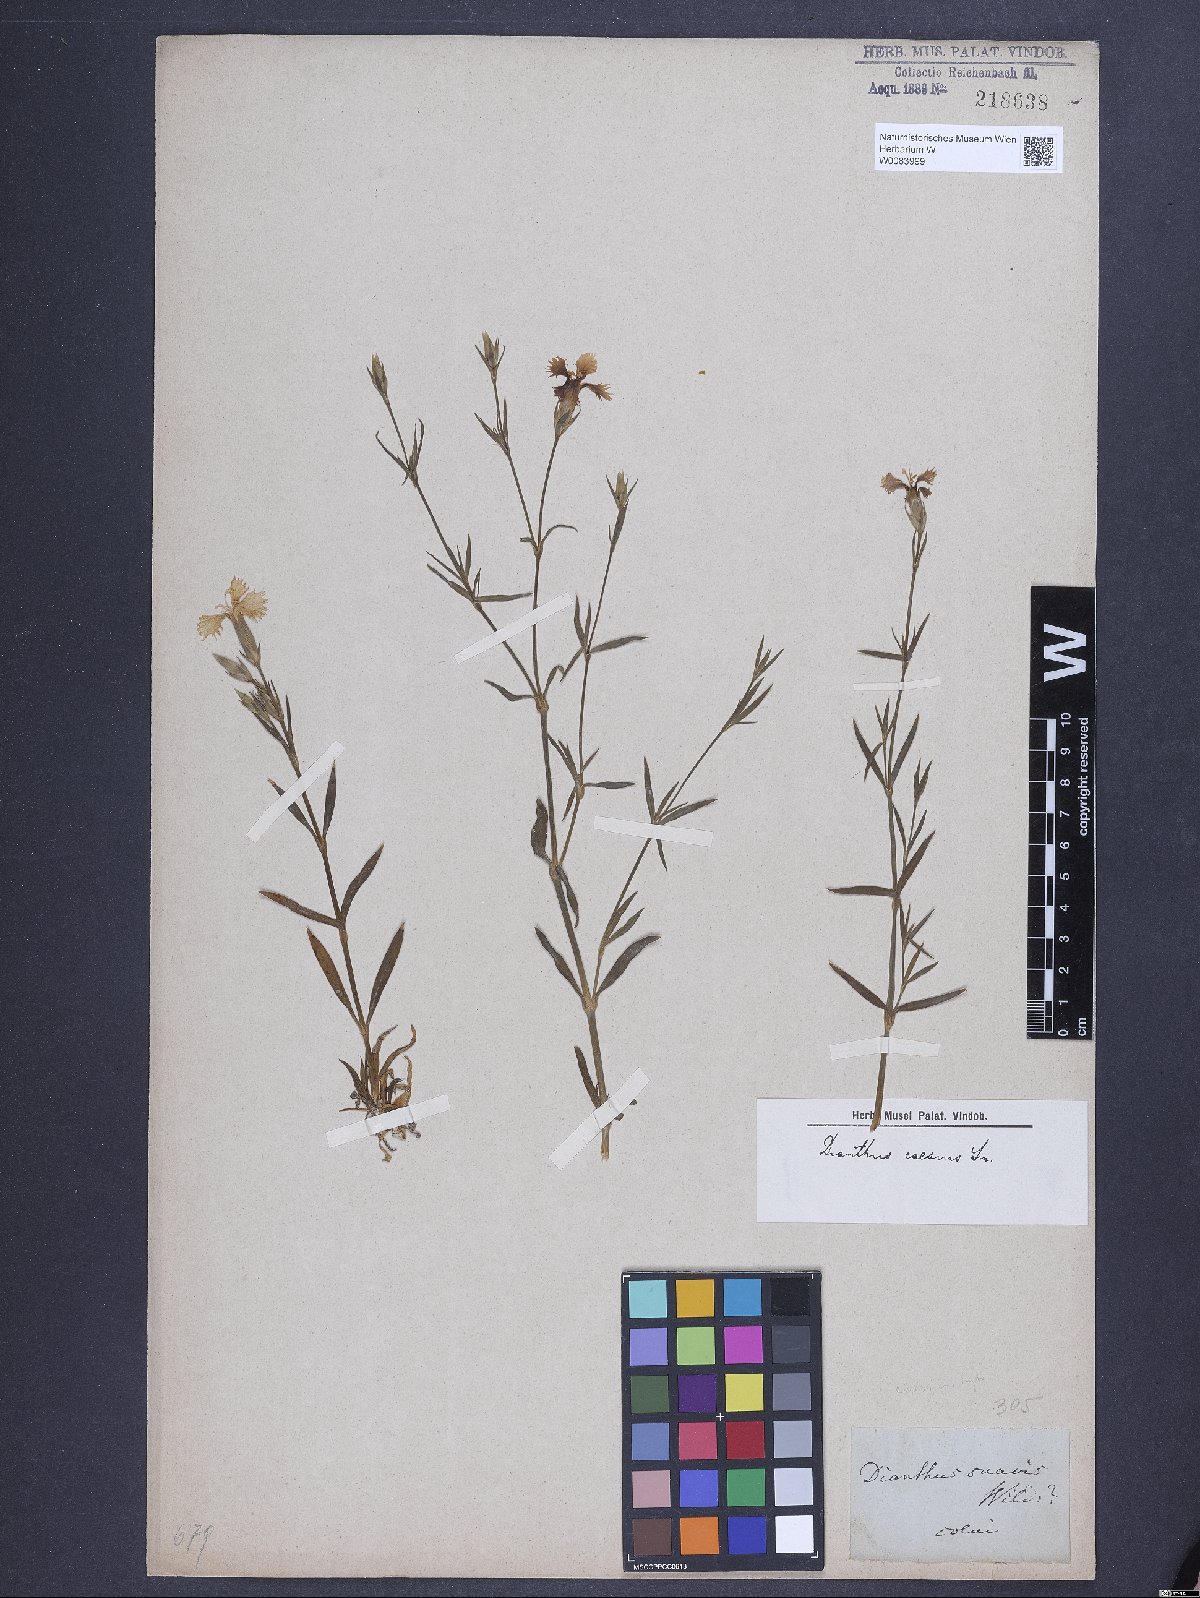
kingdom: Plantae
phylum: Tracheophyta
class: Magnoliopsida
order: Caryophyllales
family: Caryophyllaceae
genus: Dianthus
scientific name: Dianthus gratianopolitanus
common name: Cheddar pink
